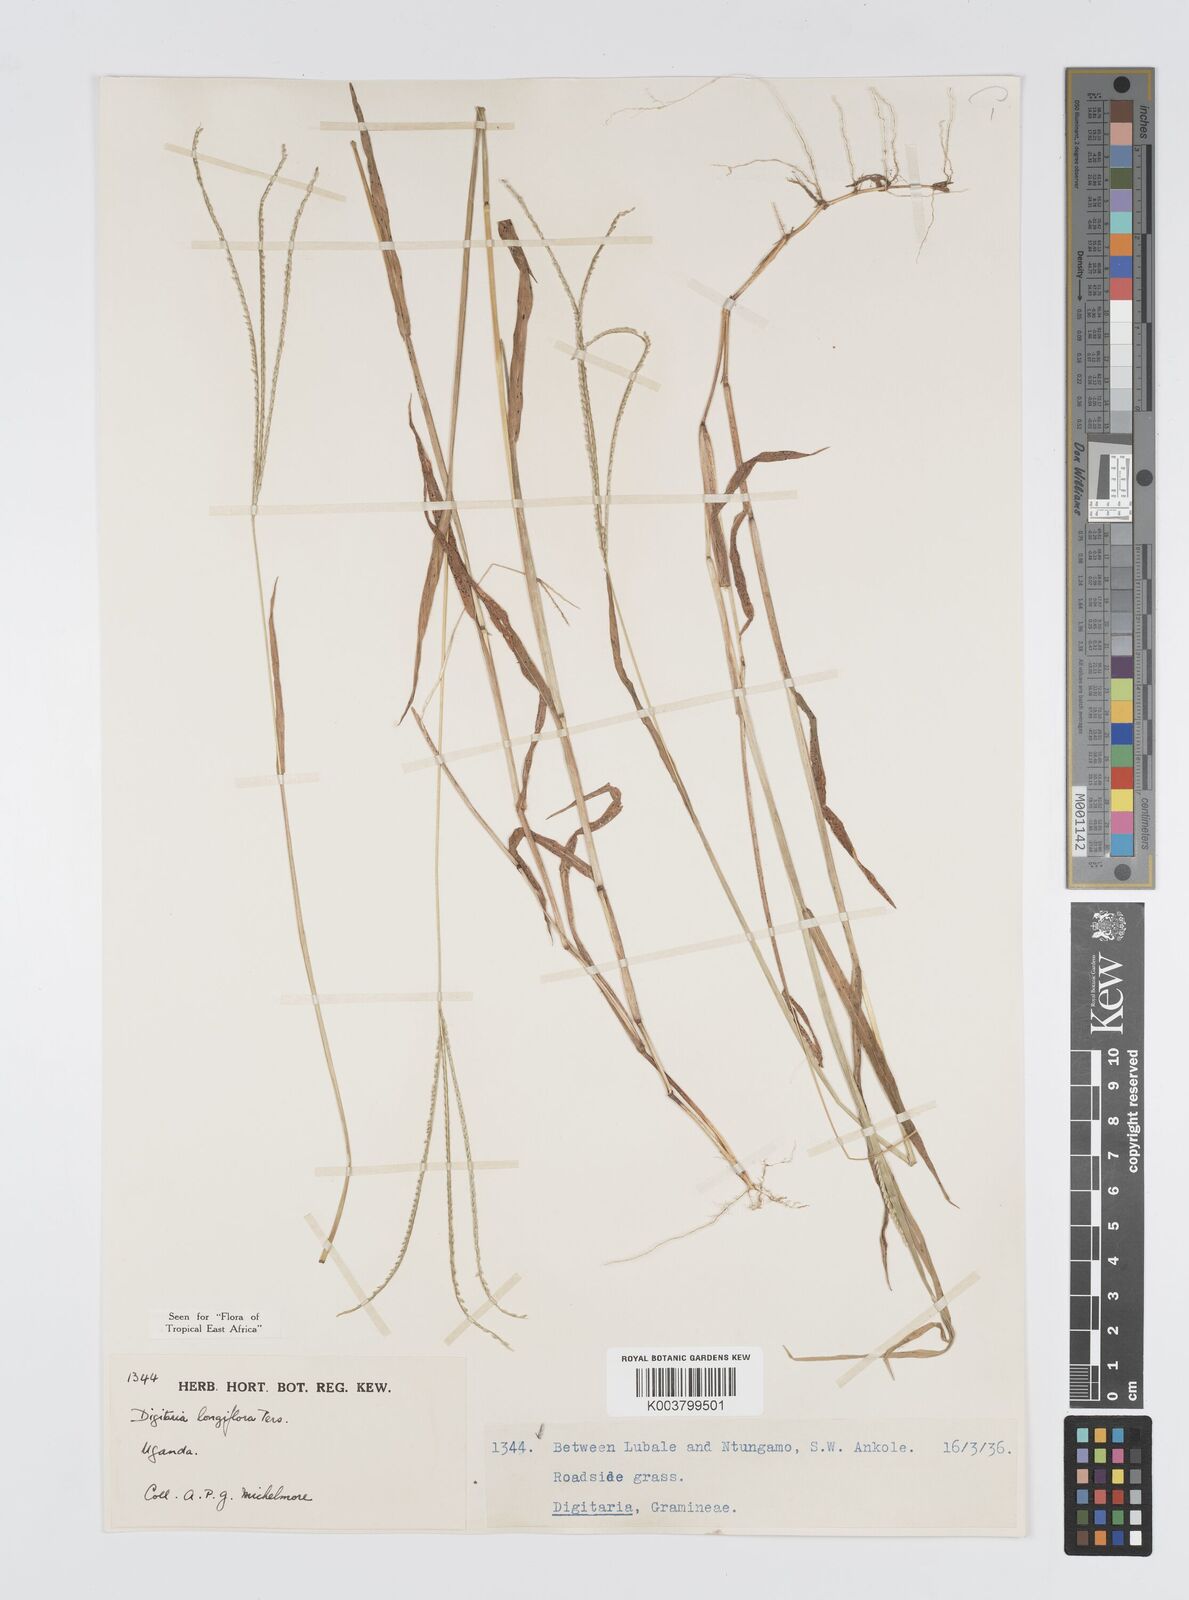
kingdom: Plantae
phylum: Tracheophyta
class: Liliopsida
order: Poales
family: Poaceae
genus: Digitaria
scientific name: Digitaria longiflora
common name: Wire crabgrass
